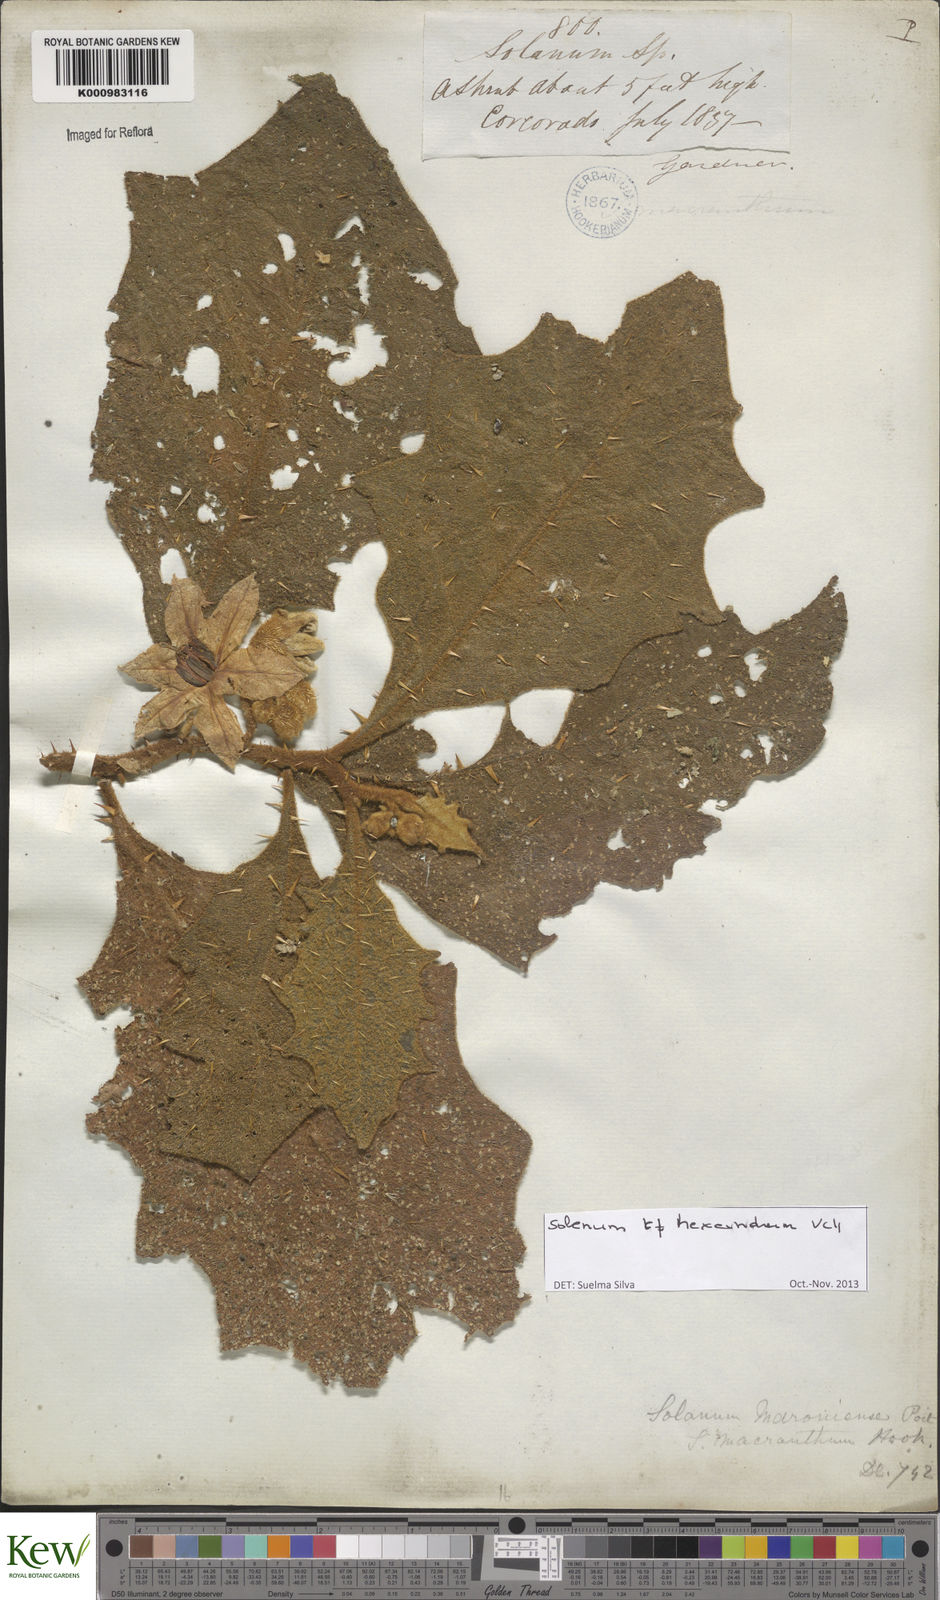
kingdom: Plantae
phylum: Tracheophyta
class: Magnoliopsida
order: Solanales
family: Solanaceae
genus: Solanum
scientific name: Solanum hexandrum
